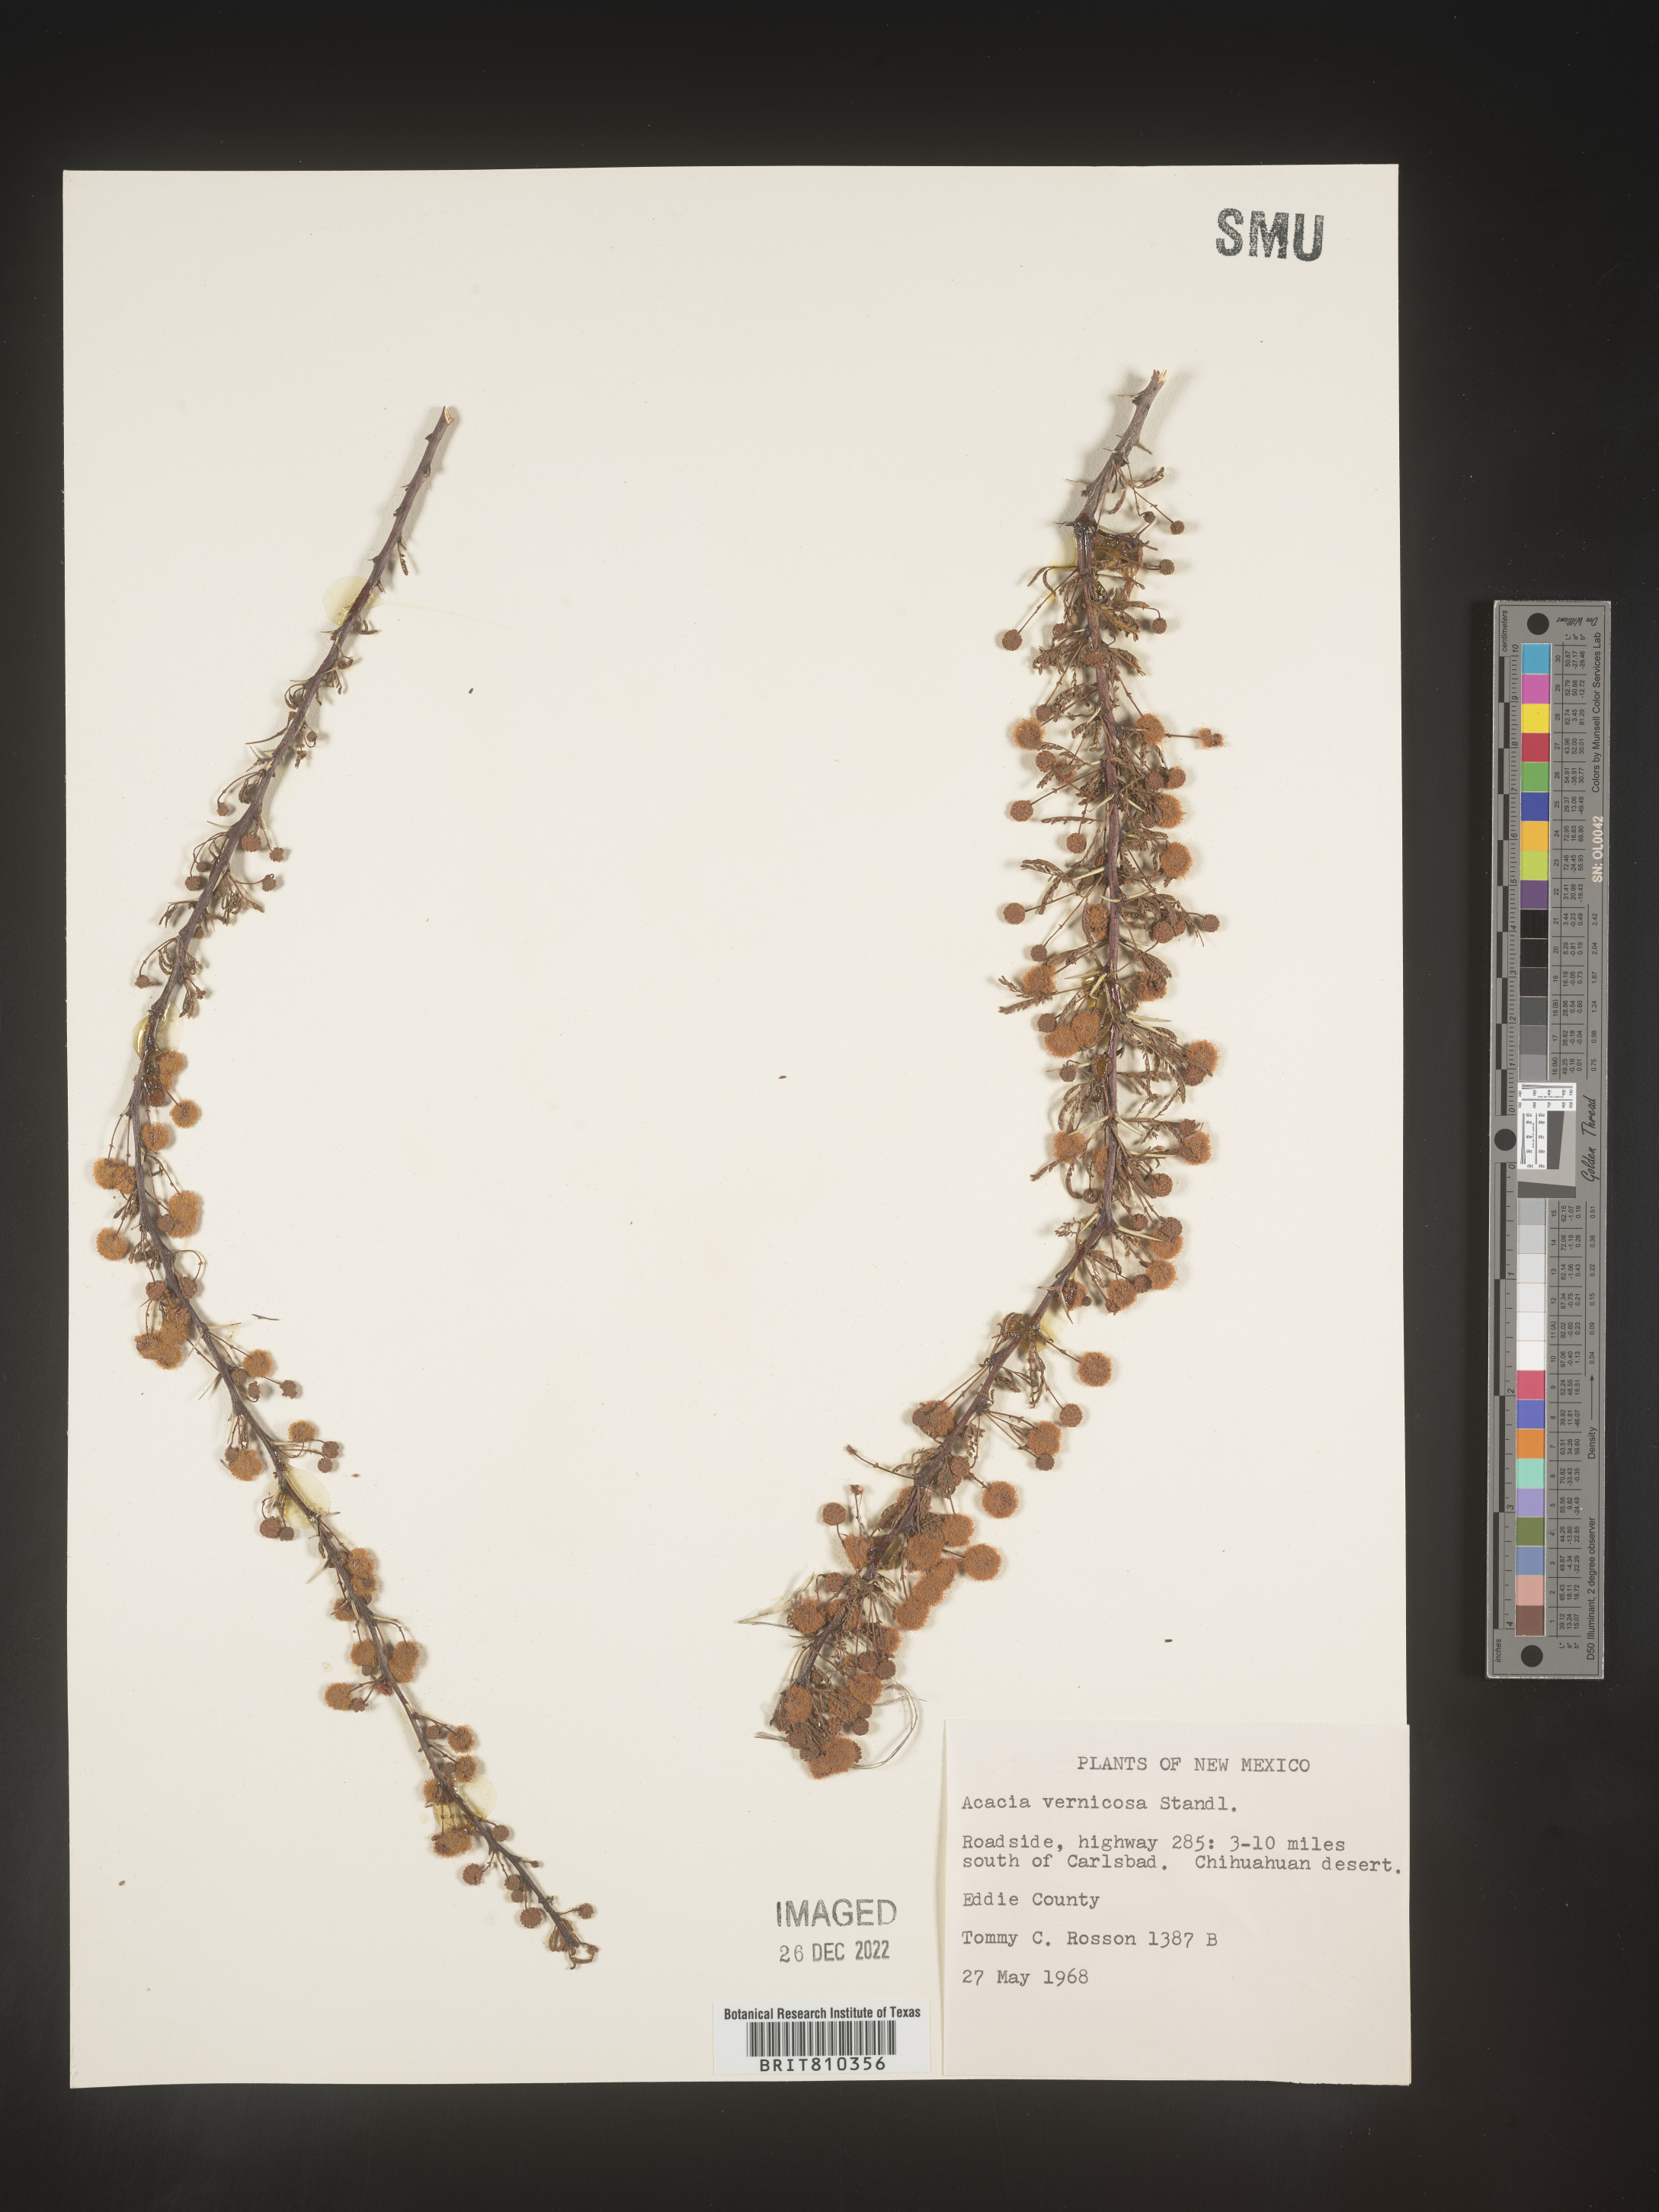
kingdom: Plantae
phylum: Tracheophyta
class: Magnoliopsida
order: Fabales
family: Fabaceae
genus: Acacia
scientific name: Acacia
